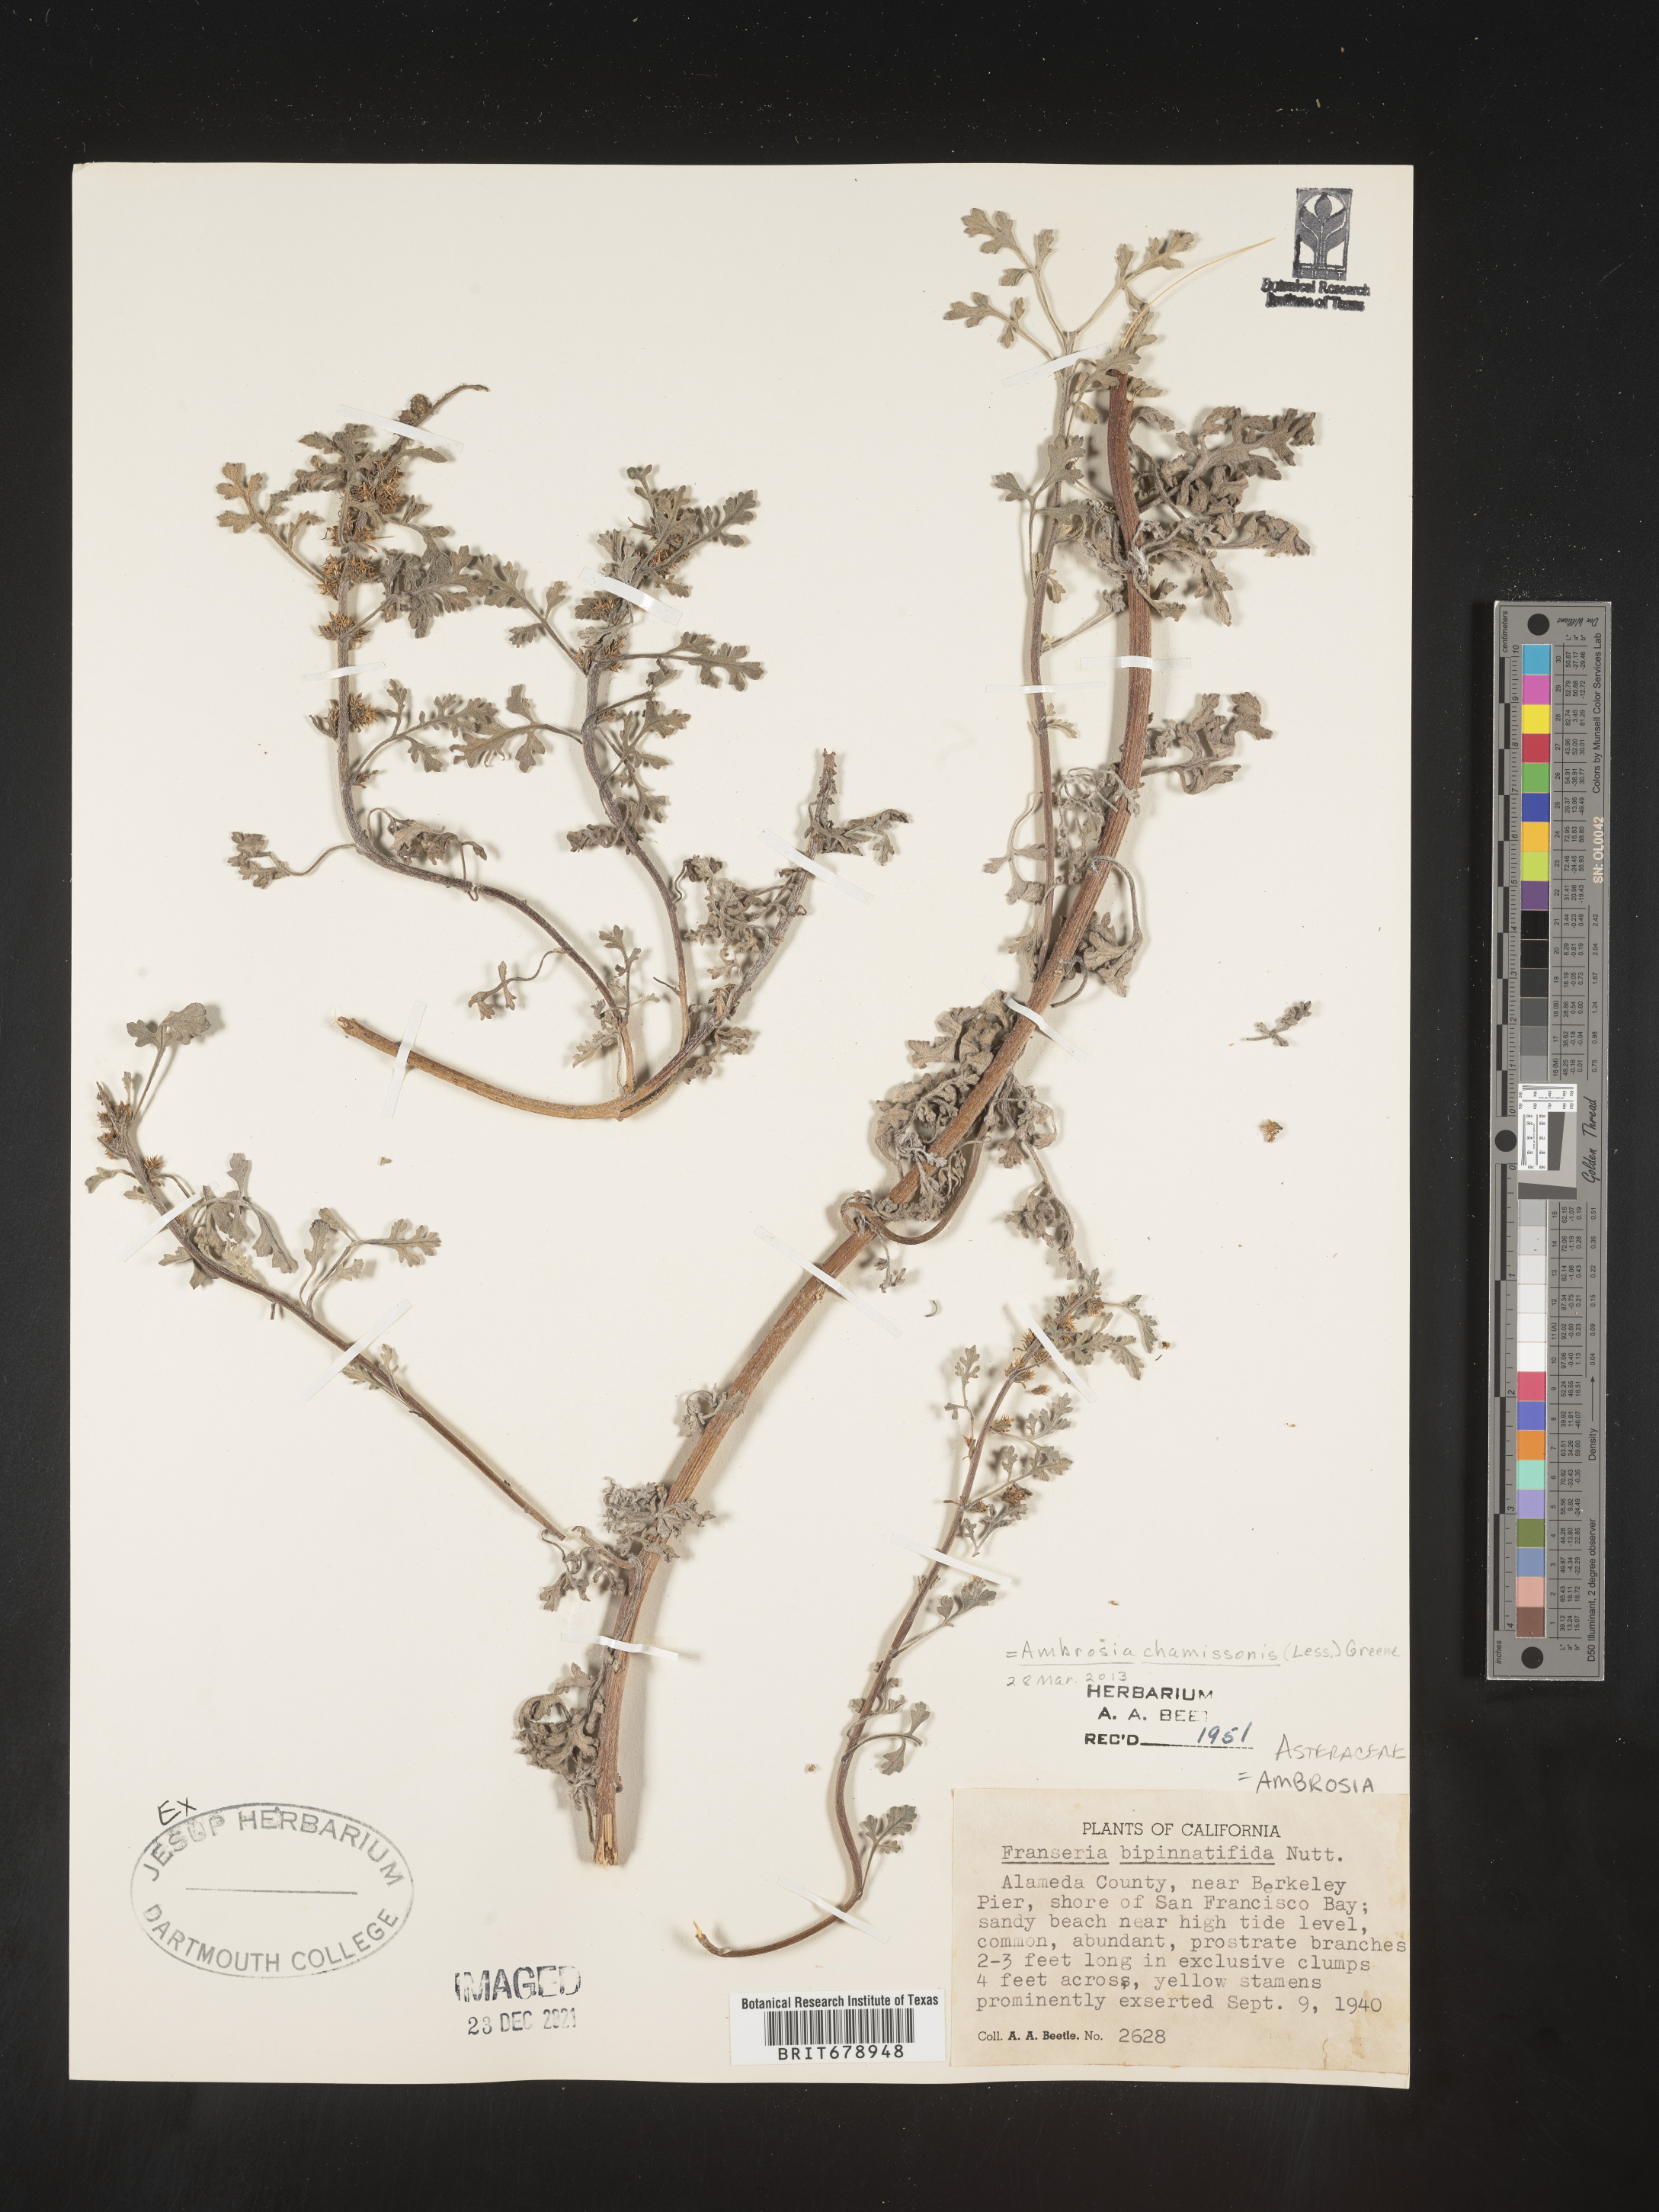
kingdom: Plantae
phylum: Tracheophyta
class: Magnoliopsida
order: Asterales
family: Asteraceae
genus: Ambrosia
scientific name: Ambrosia chamissonis
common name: Beachbur
